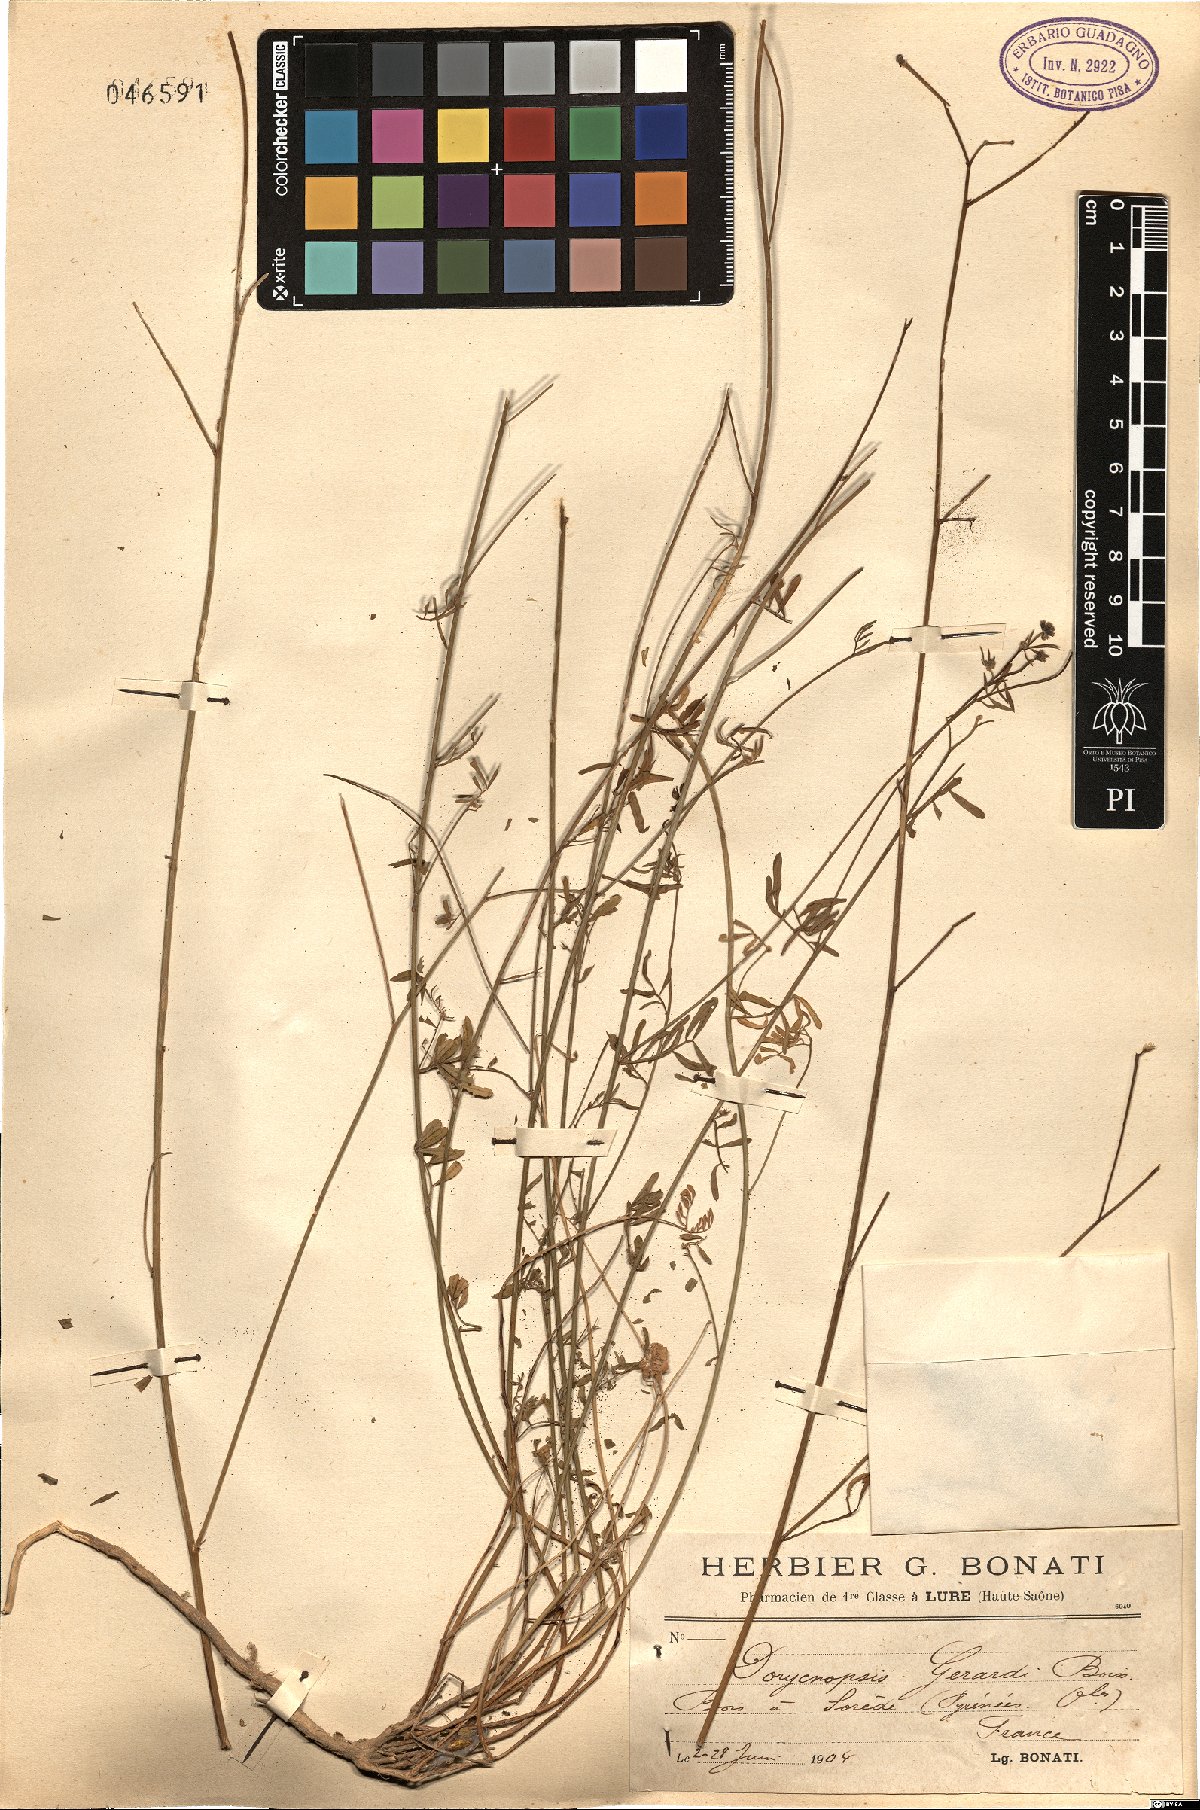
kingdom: Plantae
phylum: Tracheophyta
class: Magnoliopsida
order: Fabales
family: Fabaceae
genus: Dorycnopsis
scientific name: Dorycnopsis gerardi
